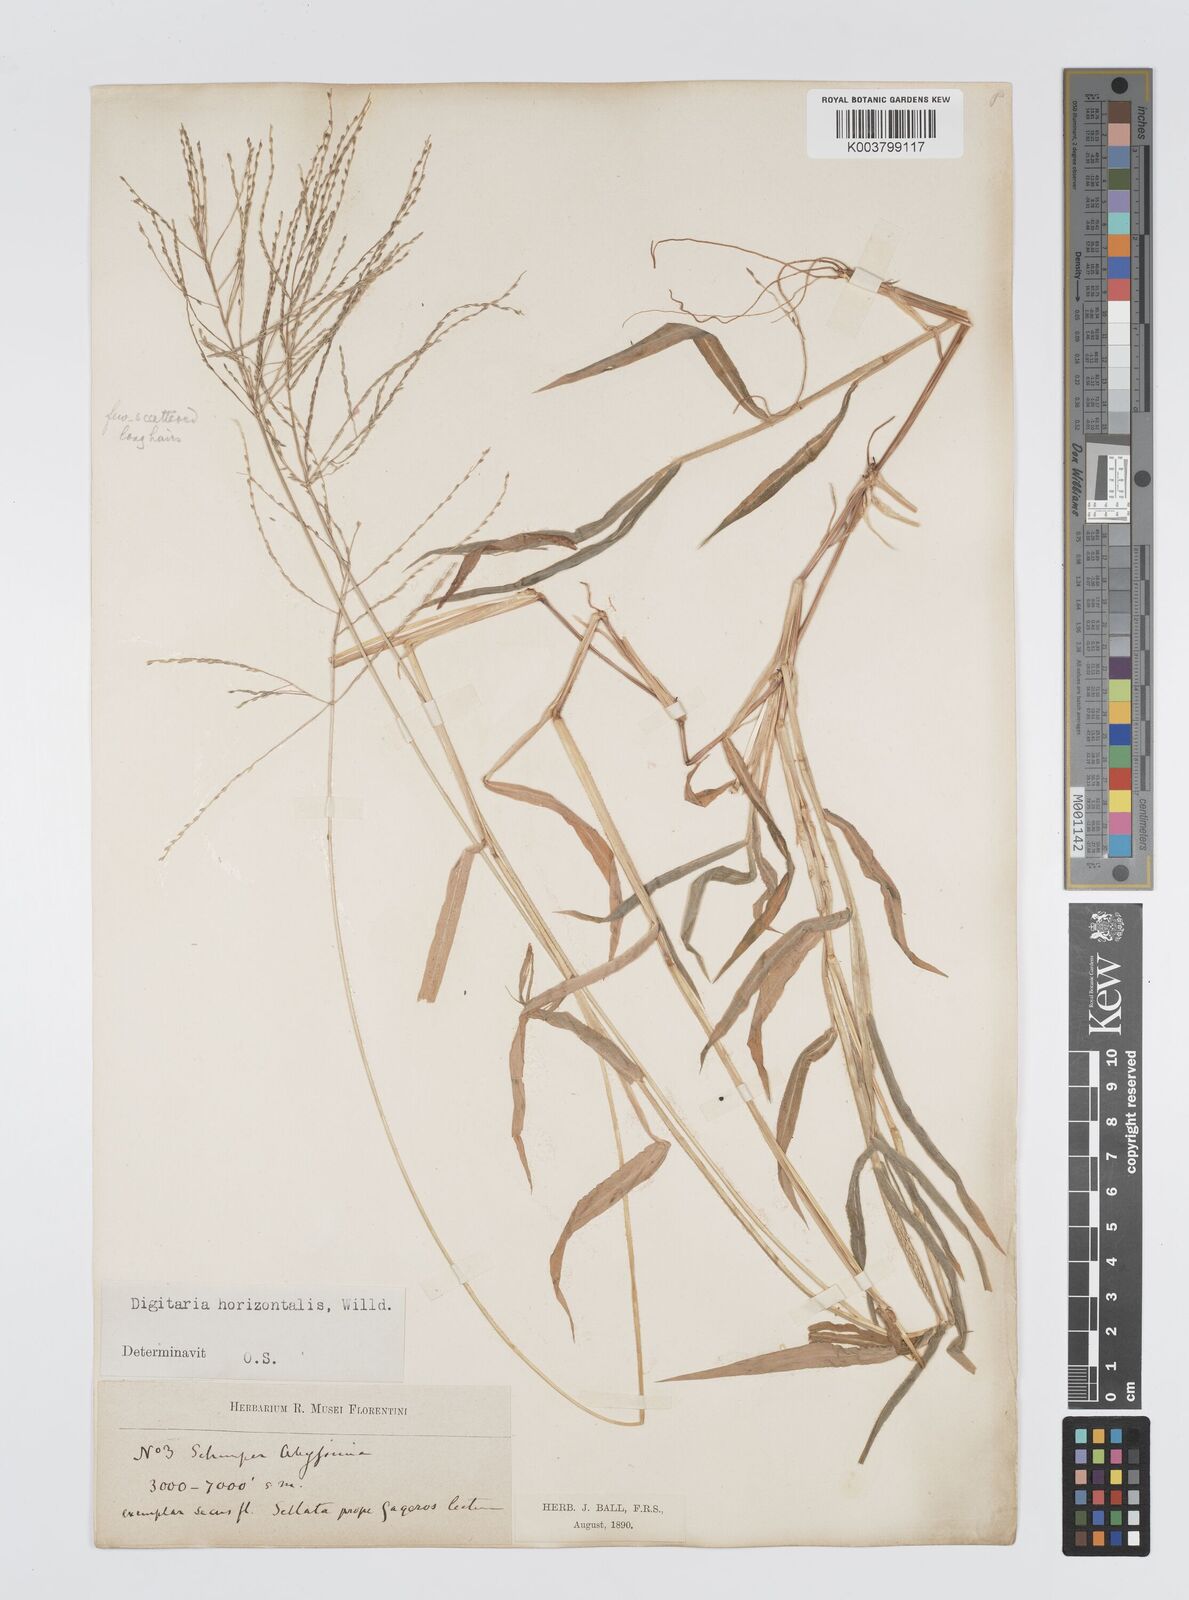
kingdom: Plantae
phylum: Tracheophyta
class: Liliopsida
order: Poales
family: Poaceae
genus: Digitaria
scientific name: Digitaria horizontalis
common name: Jamaican crabgrass
